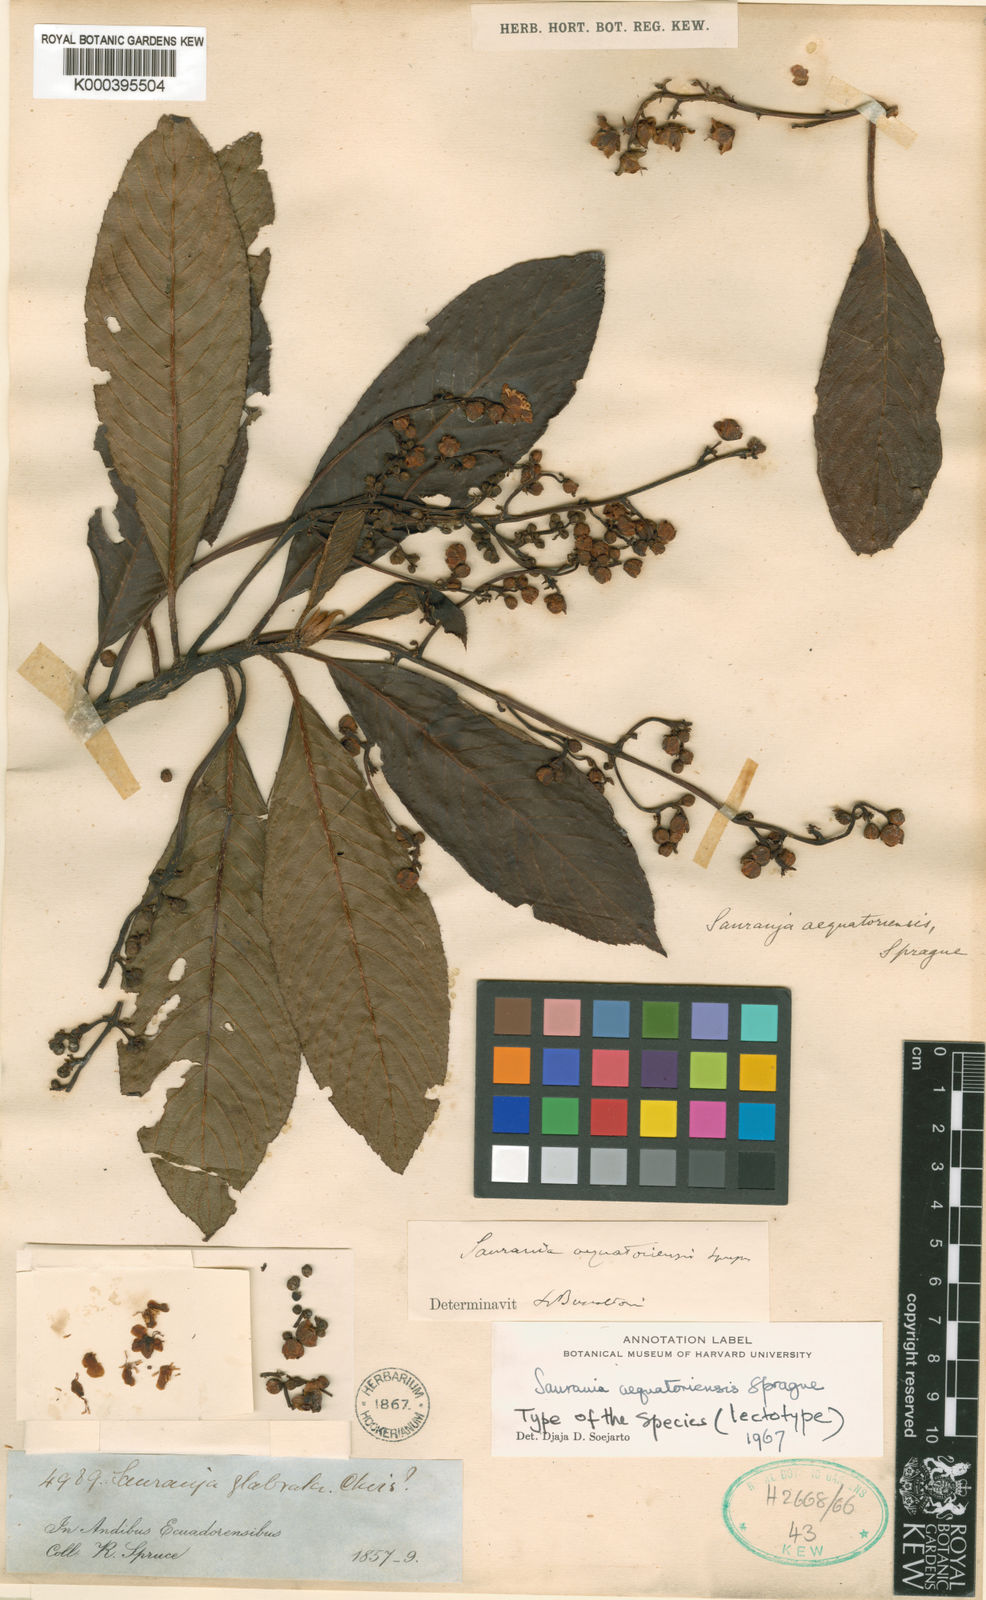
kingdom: Plantae
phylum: Tracheophyta
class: Magnoliopsida
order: Ericales
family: Actinidiaceae
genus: Saurauia
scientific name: Saurauia
